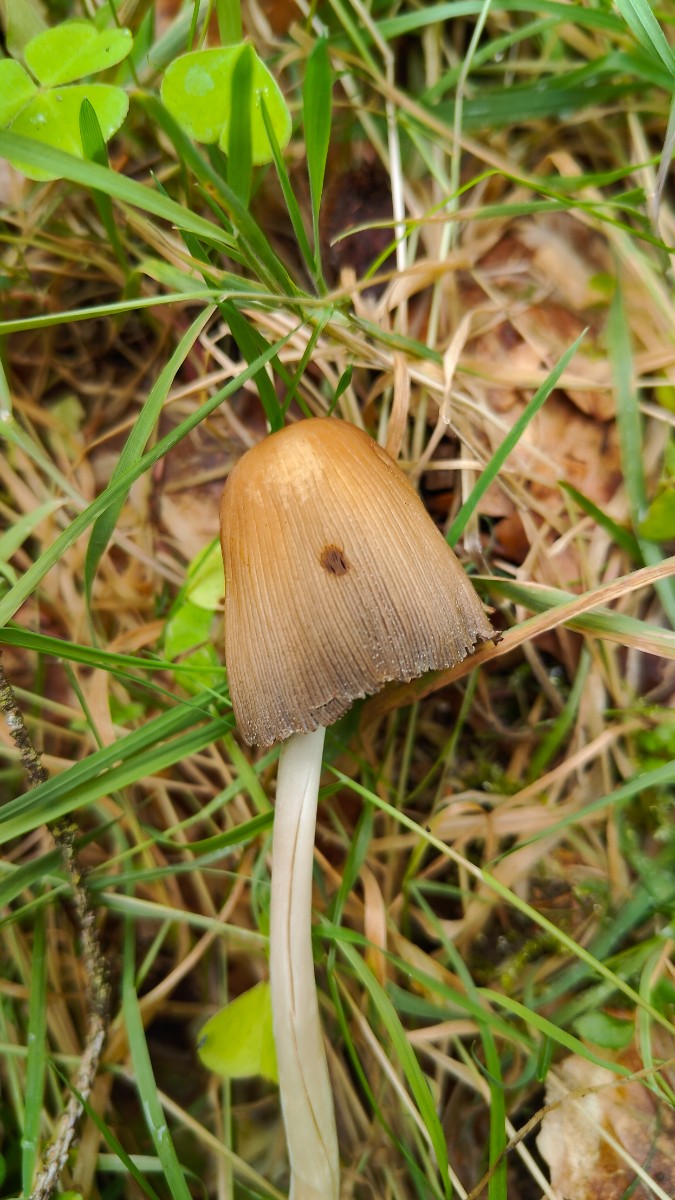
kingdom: Fungi
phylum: Basidiomycota
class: Agaricomycetes
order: Agaricales
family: Psathyrellaceae
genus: Coprinellus
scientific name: Coprinellus
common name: blækhat
